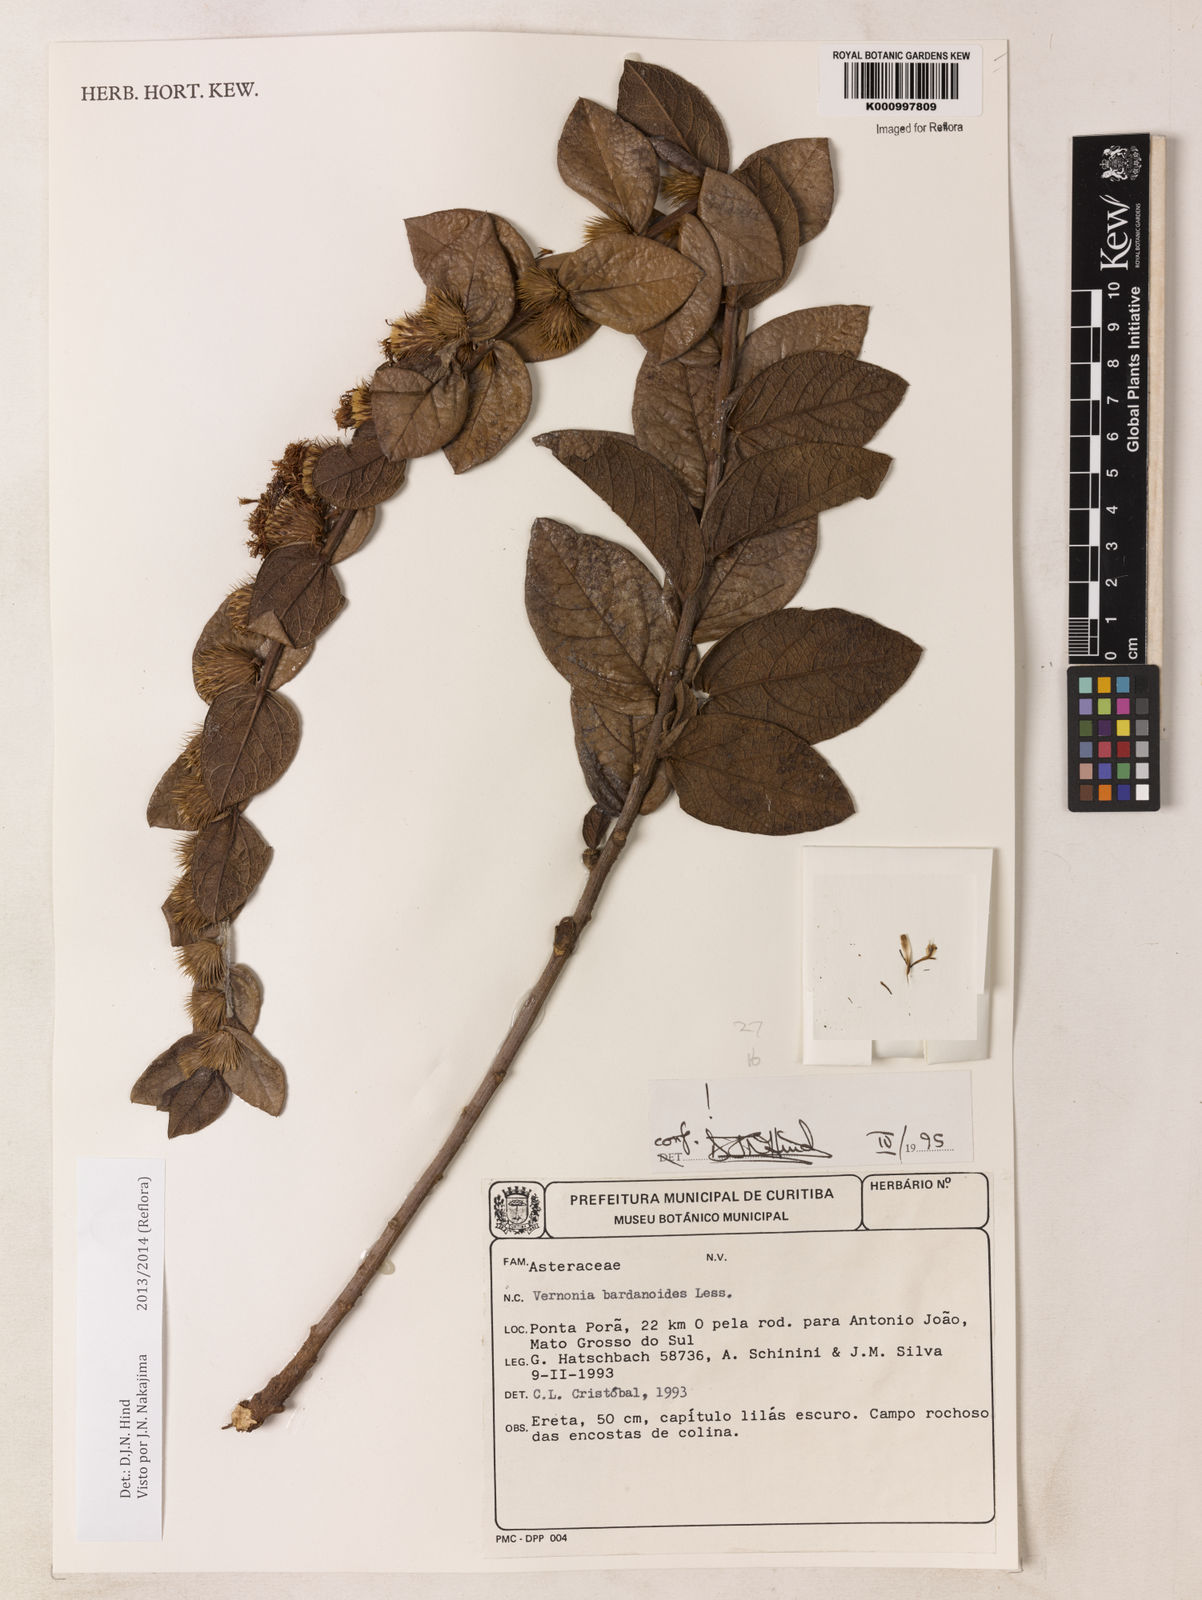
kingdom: Plantae
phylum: Tracheophyta
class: Magnoliopsida
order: Asterales
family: Asteraceae
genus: Lessingianthus
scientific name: Lessingianthus bardanioides
